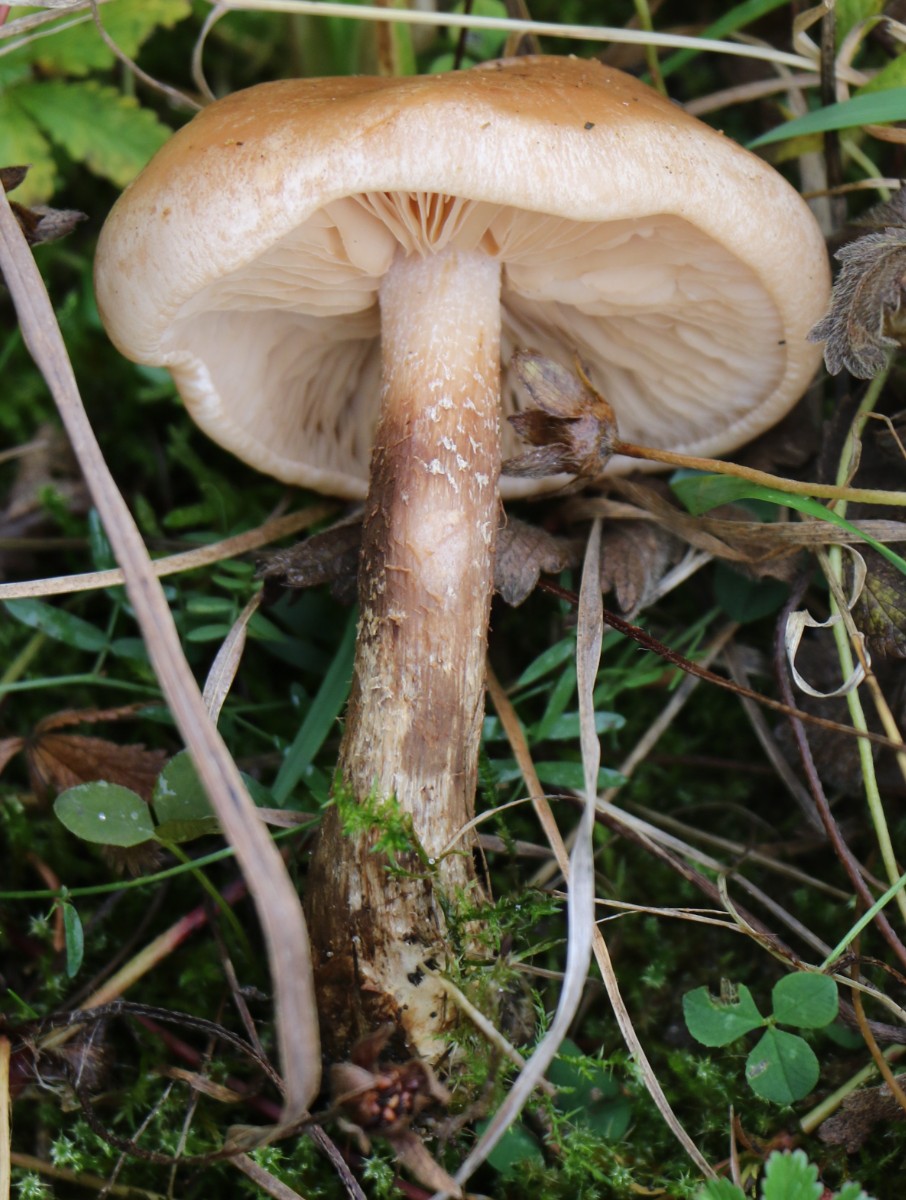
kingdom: Fungi
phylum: Basidiomycota
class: Agaricomycetes
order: Agaricales
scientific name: Agaricales
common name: champignonordenen
